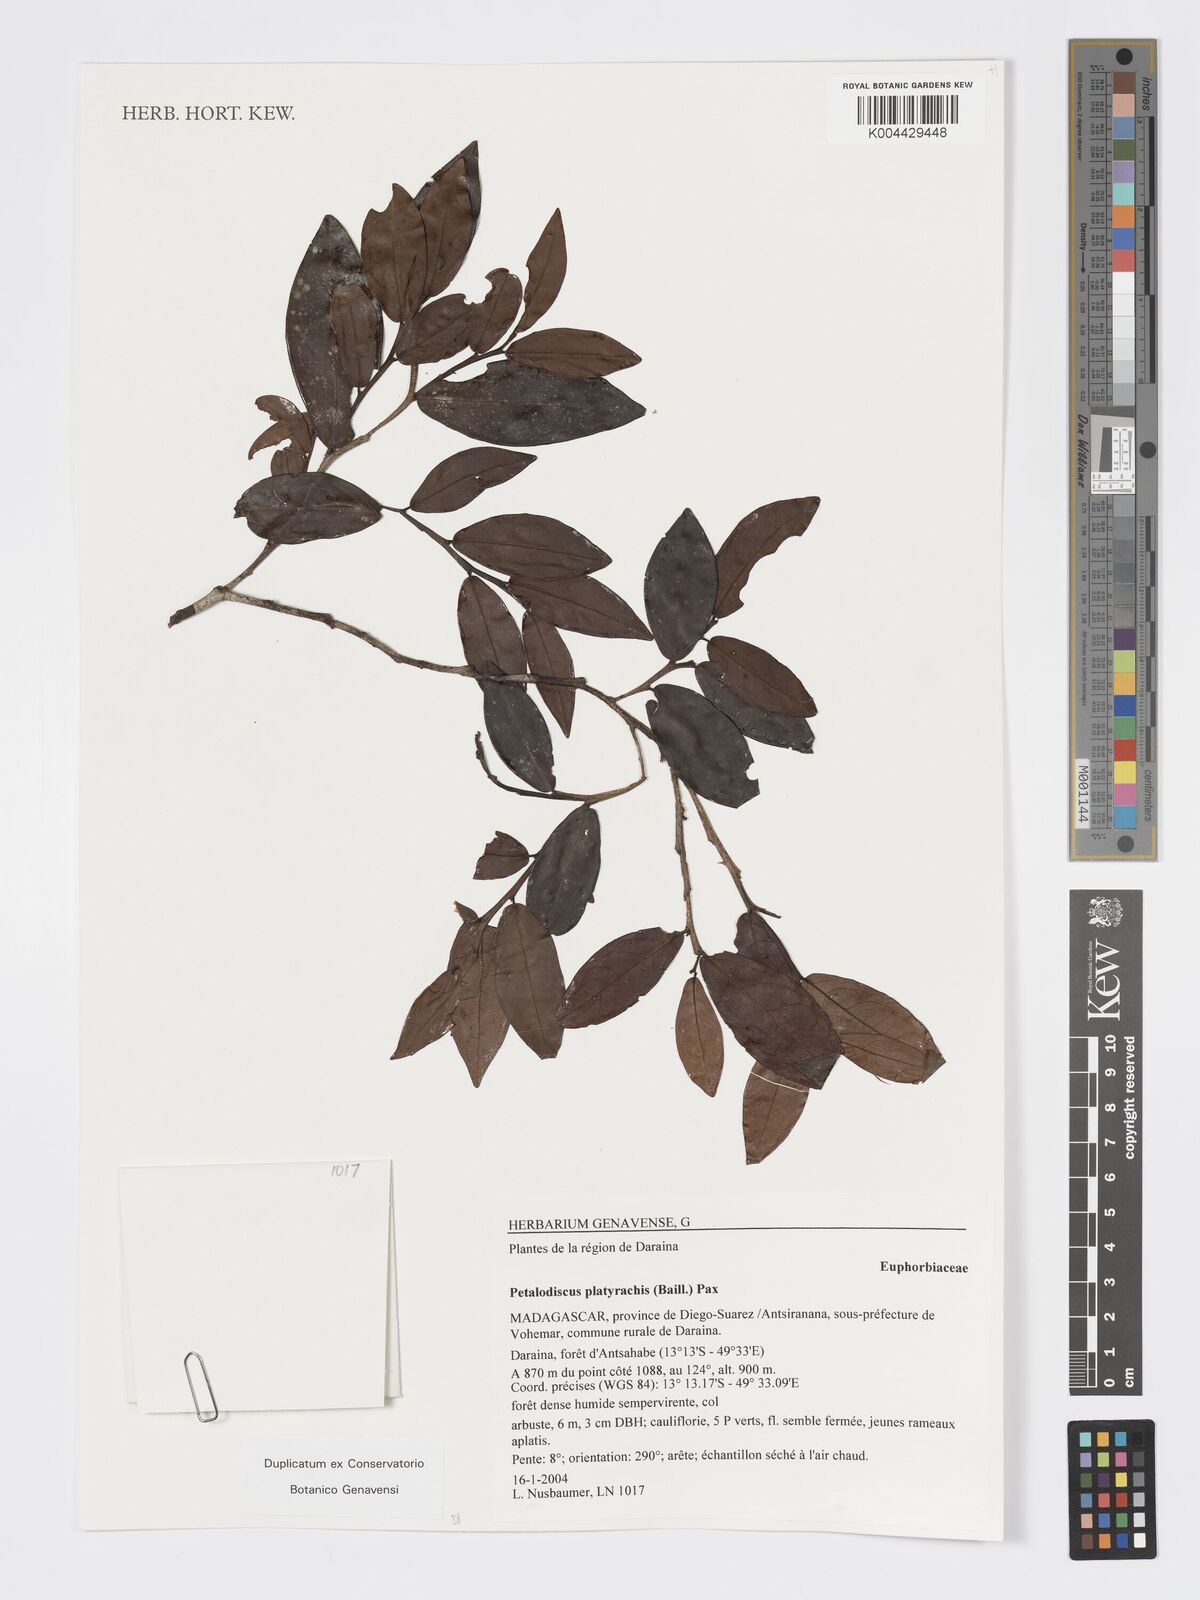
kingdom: Plantae
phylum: Tracheophyta
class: Magnoliopsida
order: Malpighiales
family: Phyllanthaceae
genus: Wielandia
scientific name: Wielandia platyrachis
